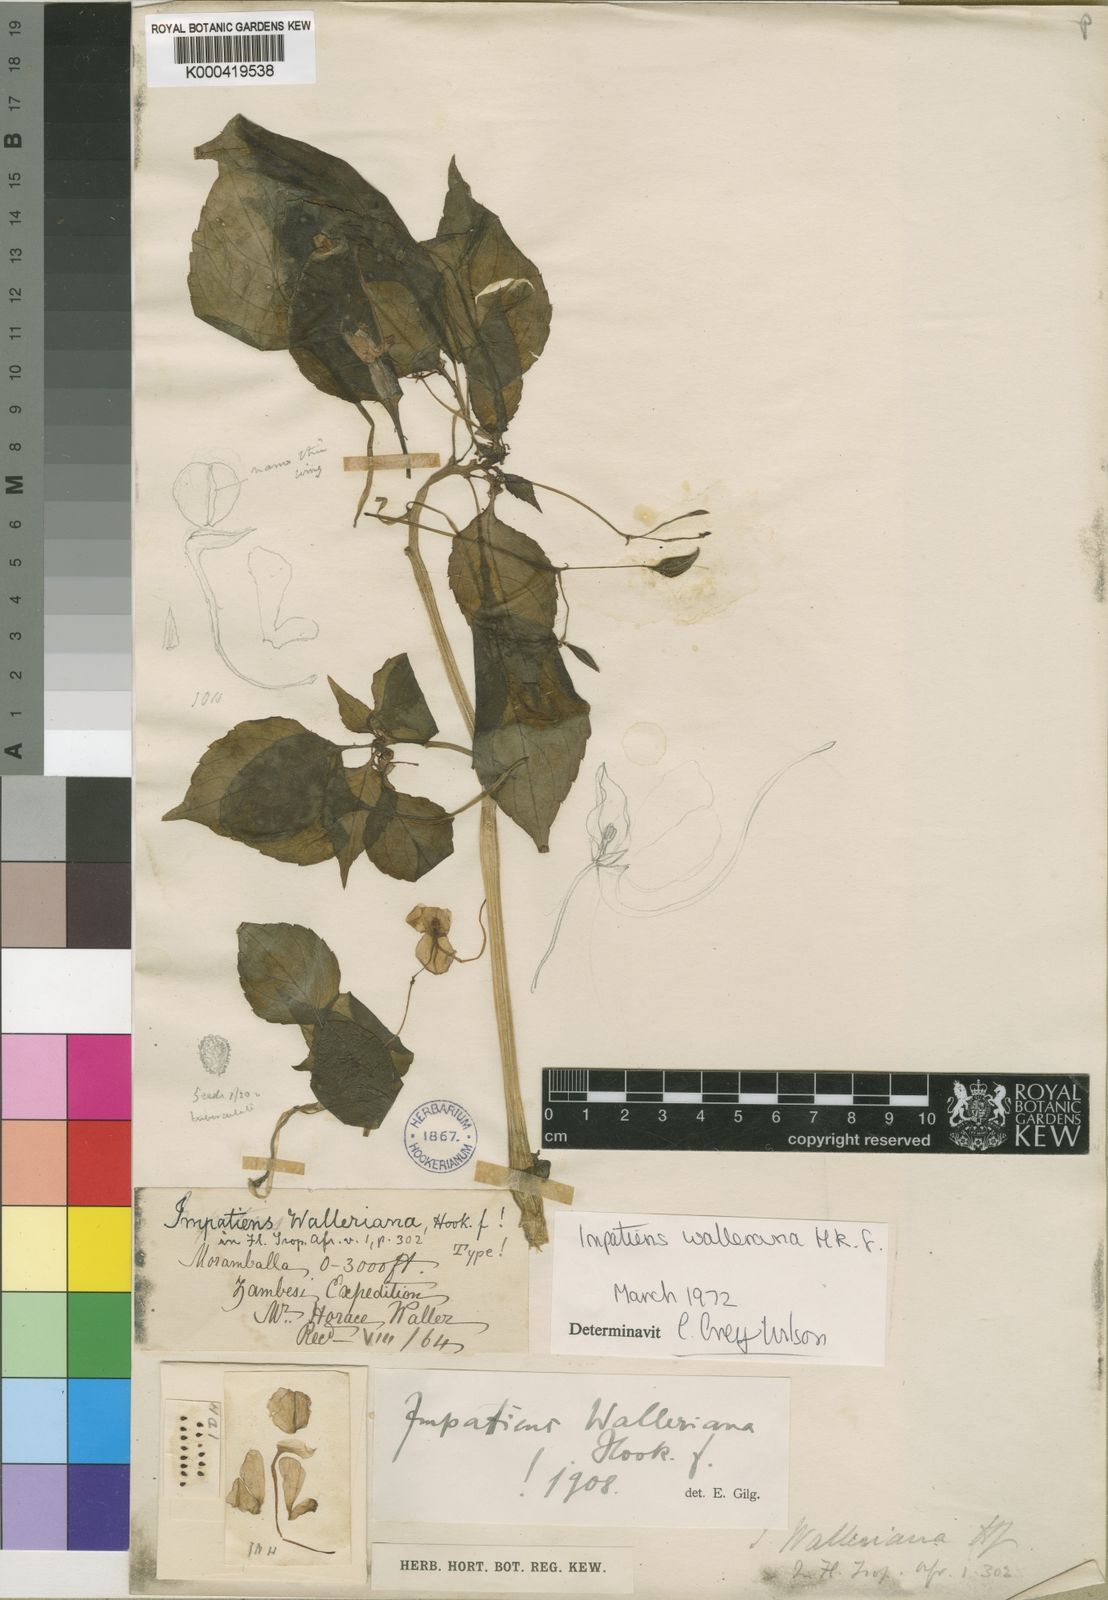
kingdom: Plantae
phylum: Tracheophyta
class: Magnoliopsida
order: Ericales
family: Balsaminaceae
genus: Impatiens
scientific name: Impatiens walleriana
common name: Buzzy lizzy
